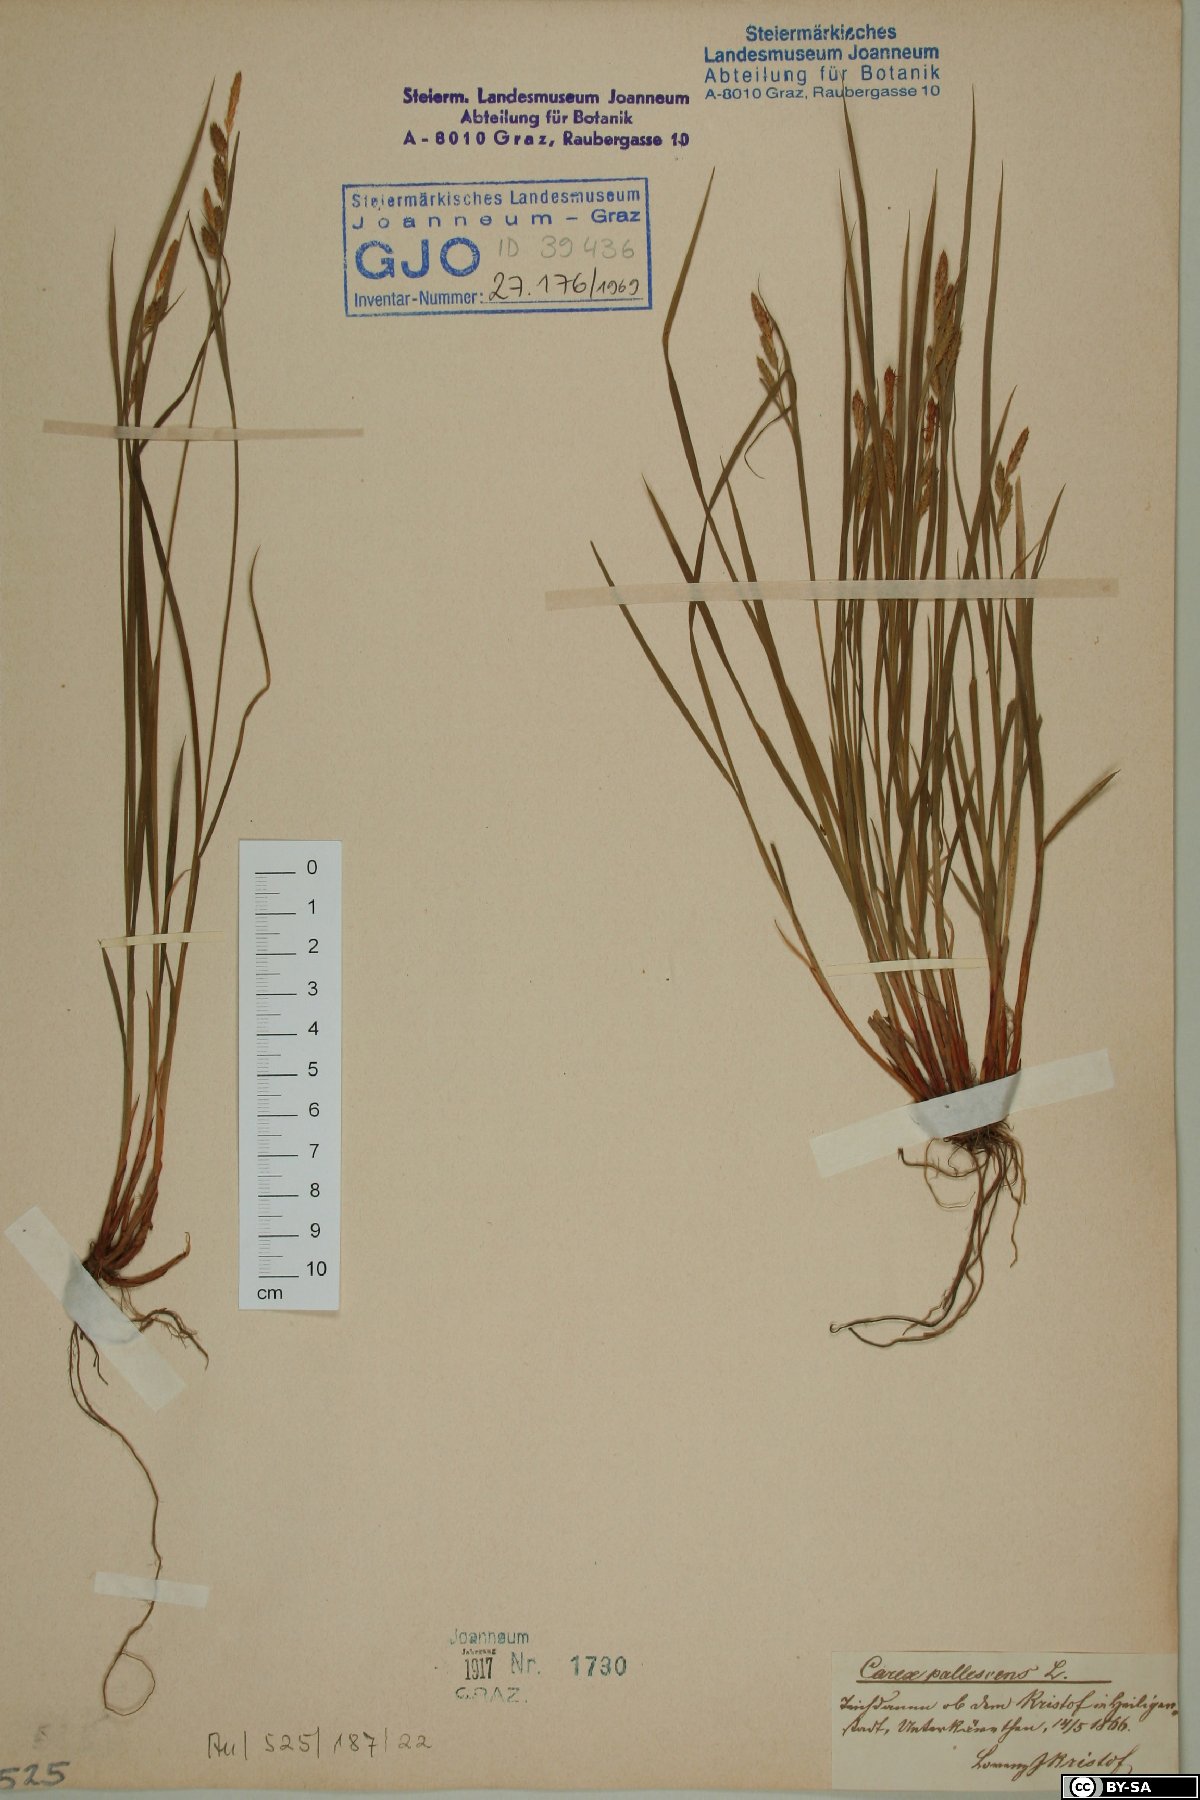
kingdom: Plantae
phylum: Tracheophyta
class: Liliopsida
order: Poales
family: Cyperaceae
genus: Carex
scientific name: Carex pallescens
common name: Pale sedge
